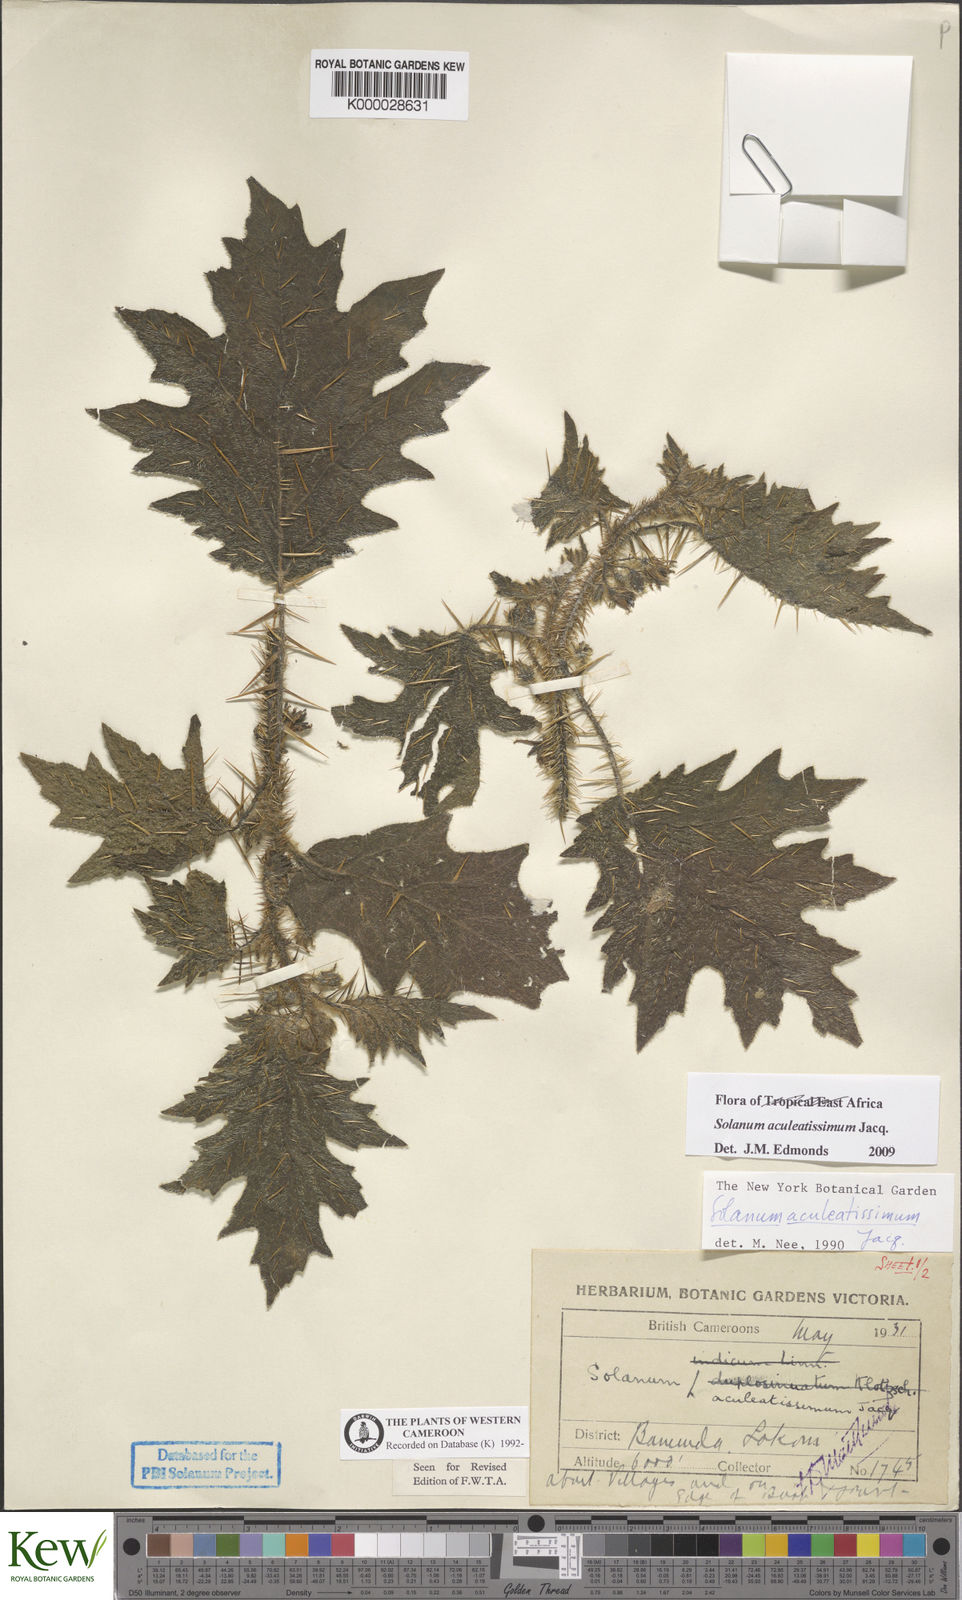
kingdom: Plantae
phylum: Tracheophyta
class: Magnoliopsida
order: Solanales
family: Solanaceae
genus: Solanum
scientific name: Solanum aculeatissimum
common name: Dutch eggplant
